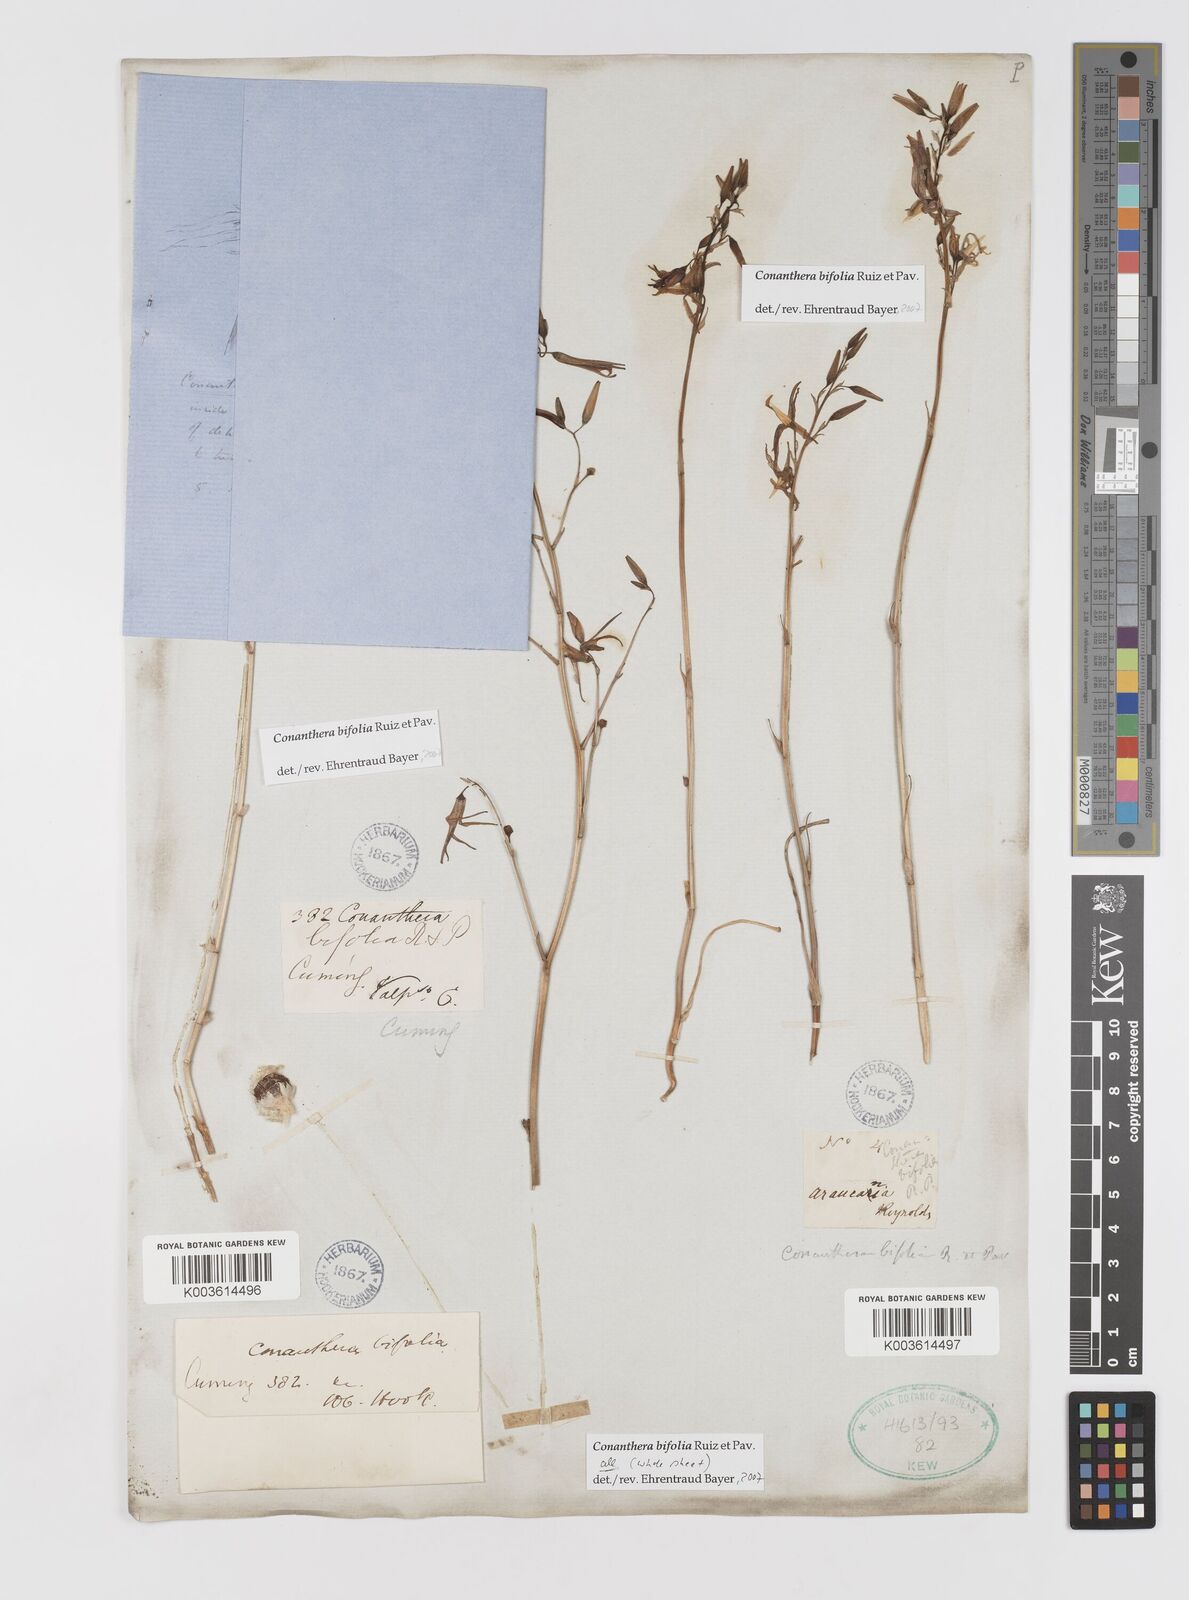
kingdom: Plantae
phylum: Tracheophyta
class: Liliopsida
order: Asparagales
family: Tecophilaeaceae
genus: Conanthera
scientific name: Conanthera bifolia
